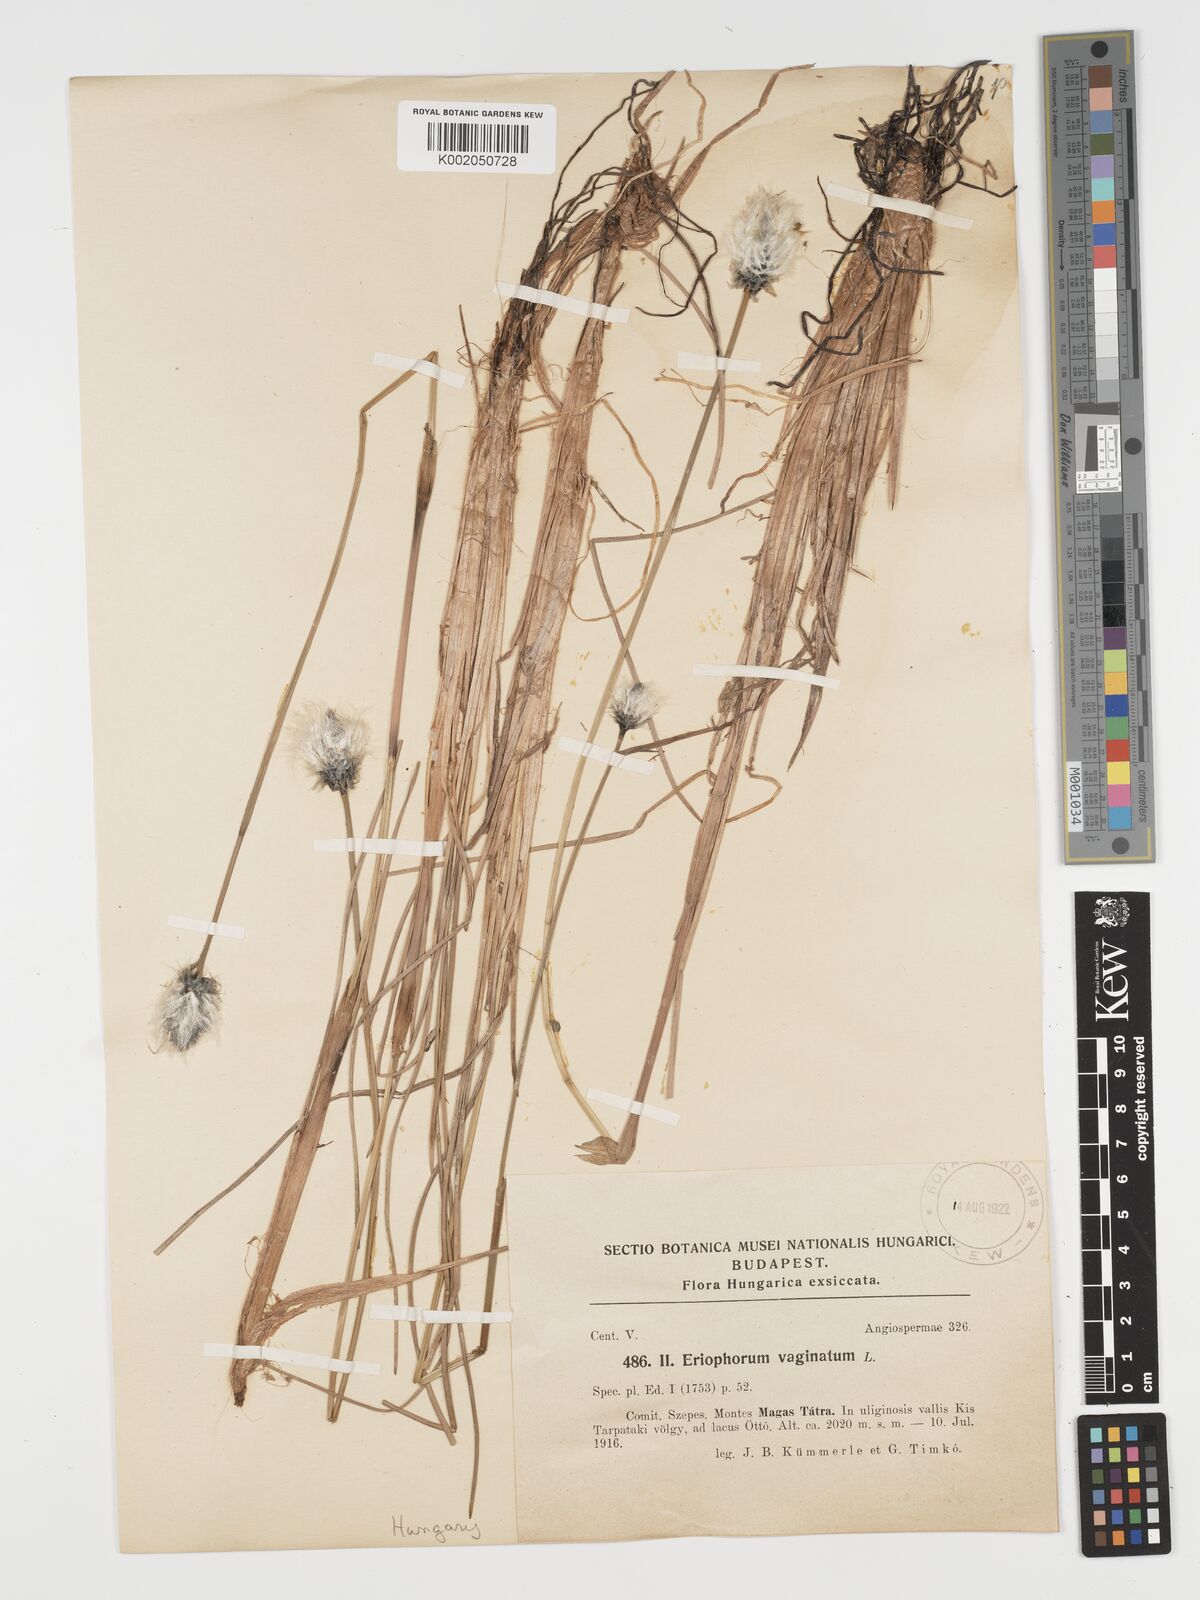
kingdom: Plantae
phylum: Tracheophyta
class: Liliopsida
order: Poales
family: Cyperaceae
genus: Eriophorum
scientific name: Eriophorum vaginatum
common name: Hare's-tail cottongrass
